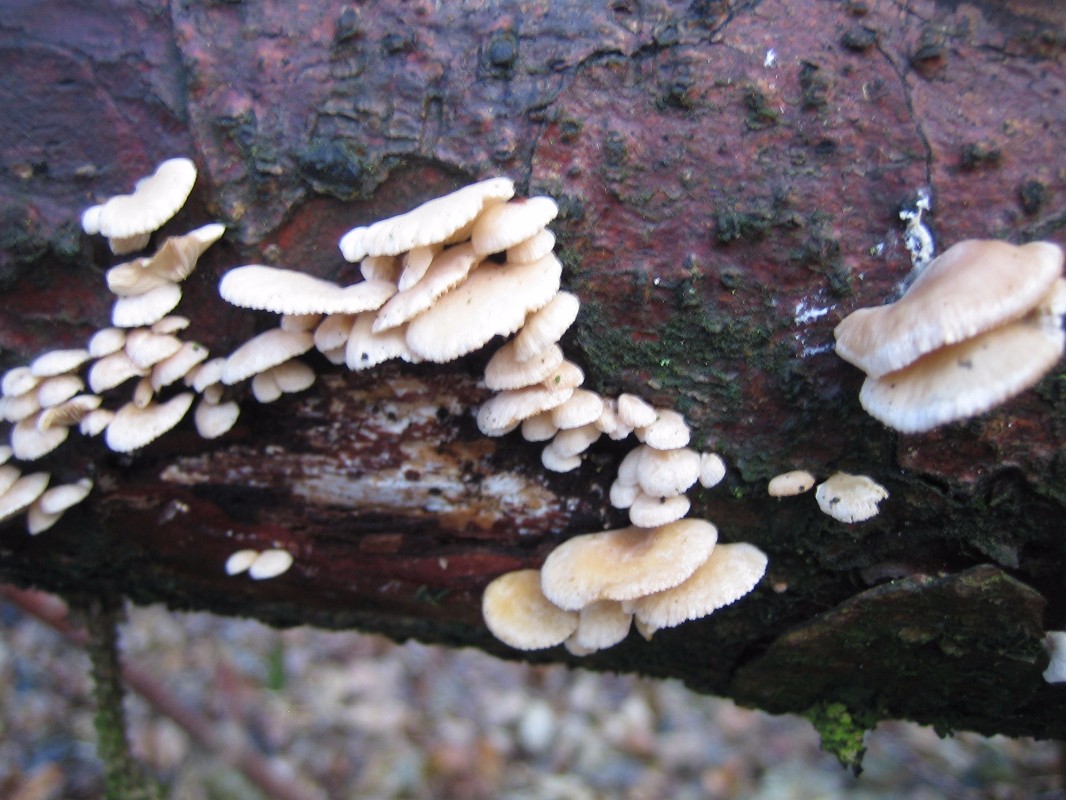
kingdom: Fungi
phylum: Basidiomycota
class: Agaricomycetes
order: Agaricales
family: Mycenaceae
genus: Panellus
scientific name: Panellus mitis
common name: mild epaulethat
